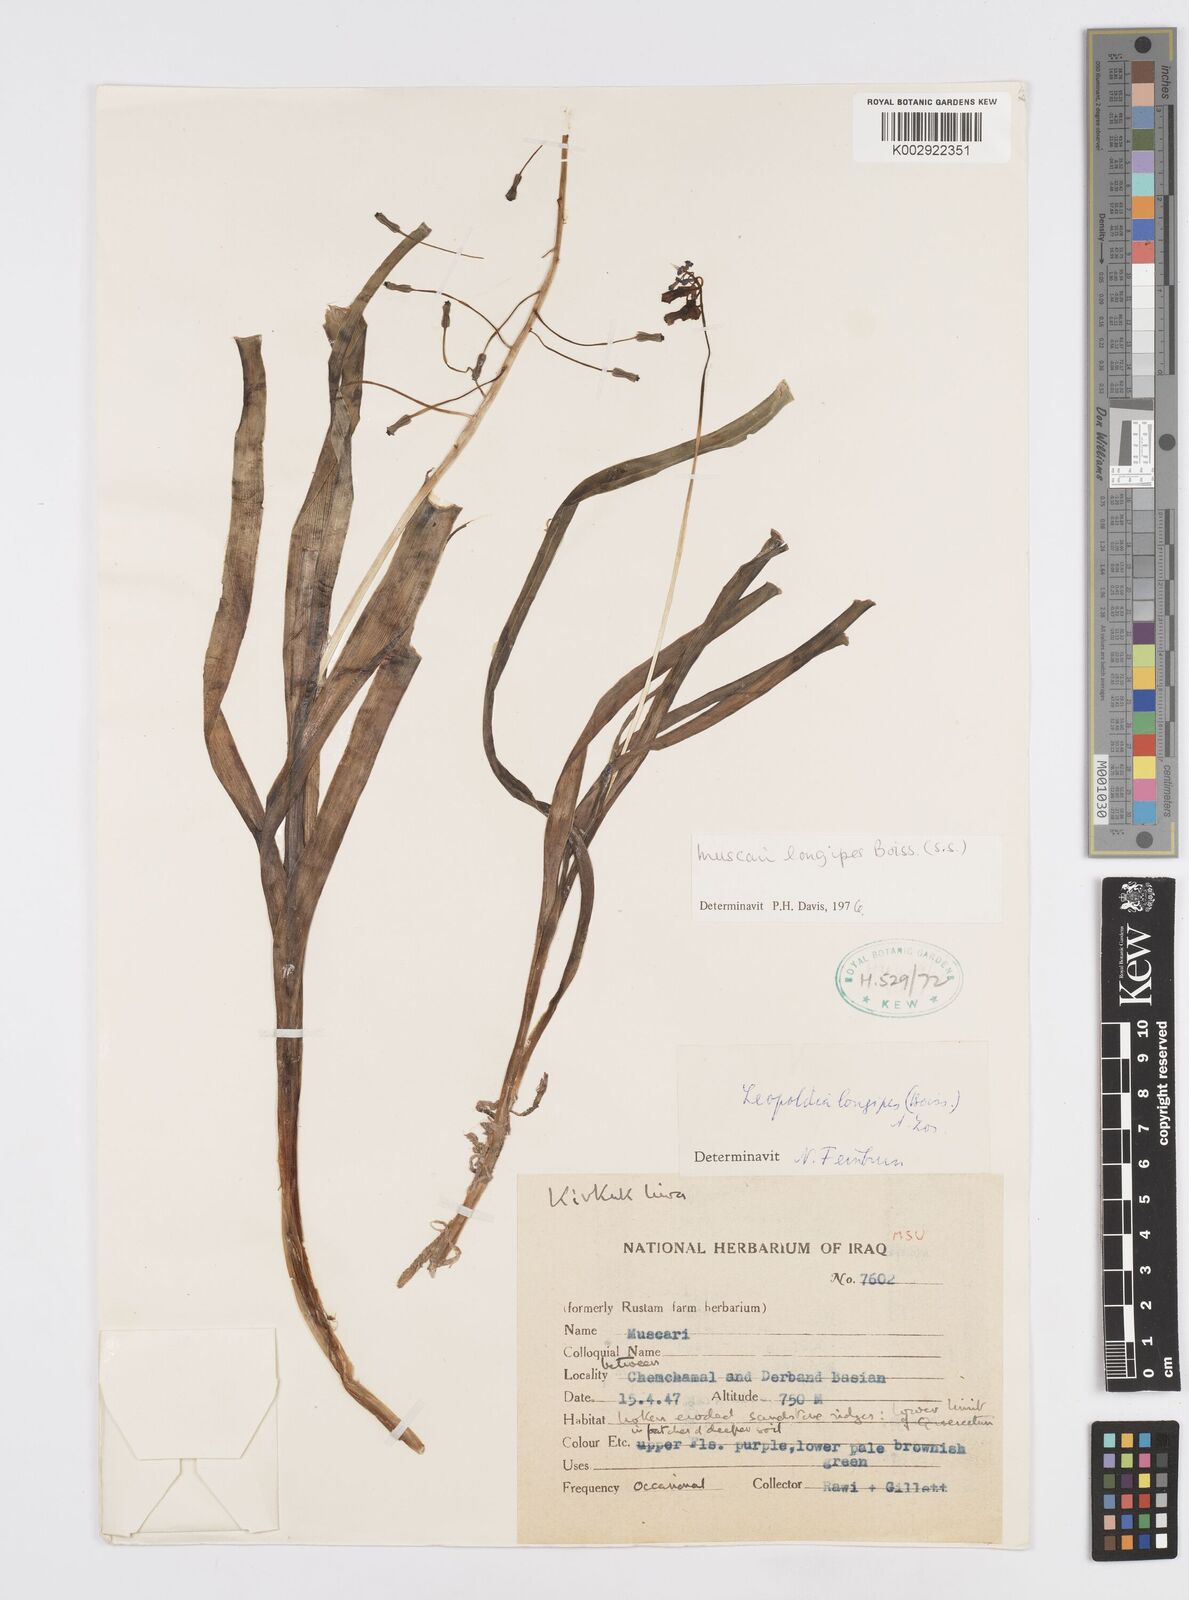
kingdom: Plantae
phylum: Tracheophyta
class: Liliopsida
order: Asparagales
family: Asparagaceae
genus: Muscari
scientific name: Muscari longipes
